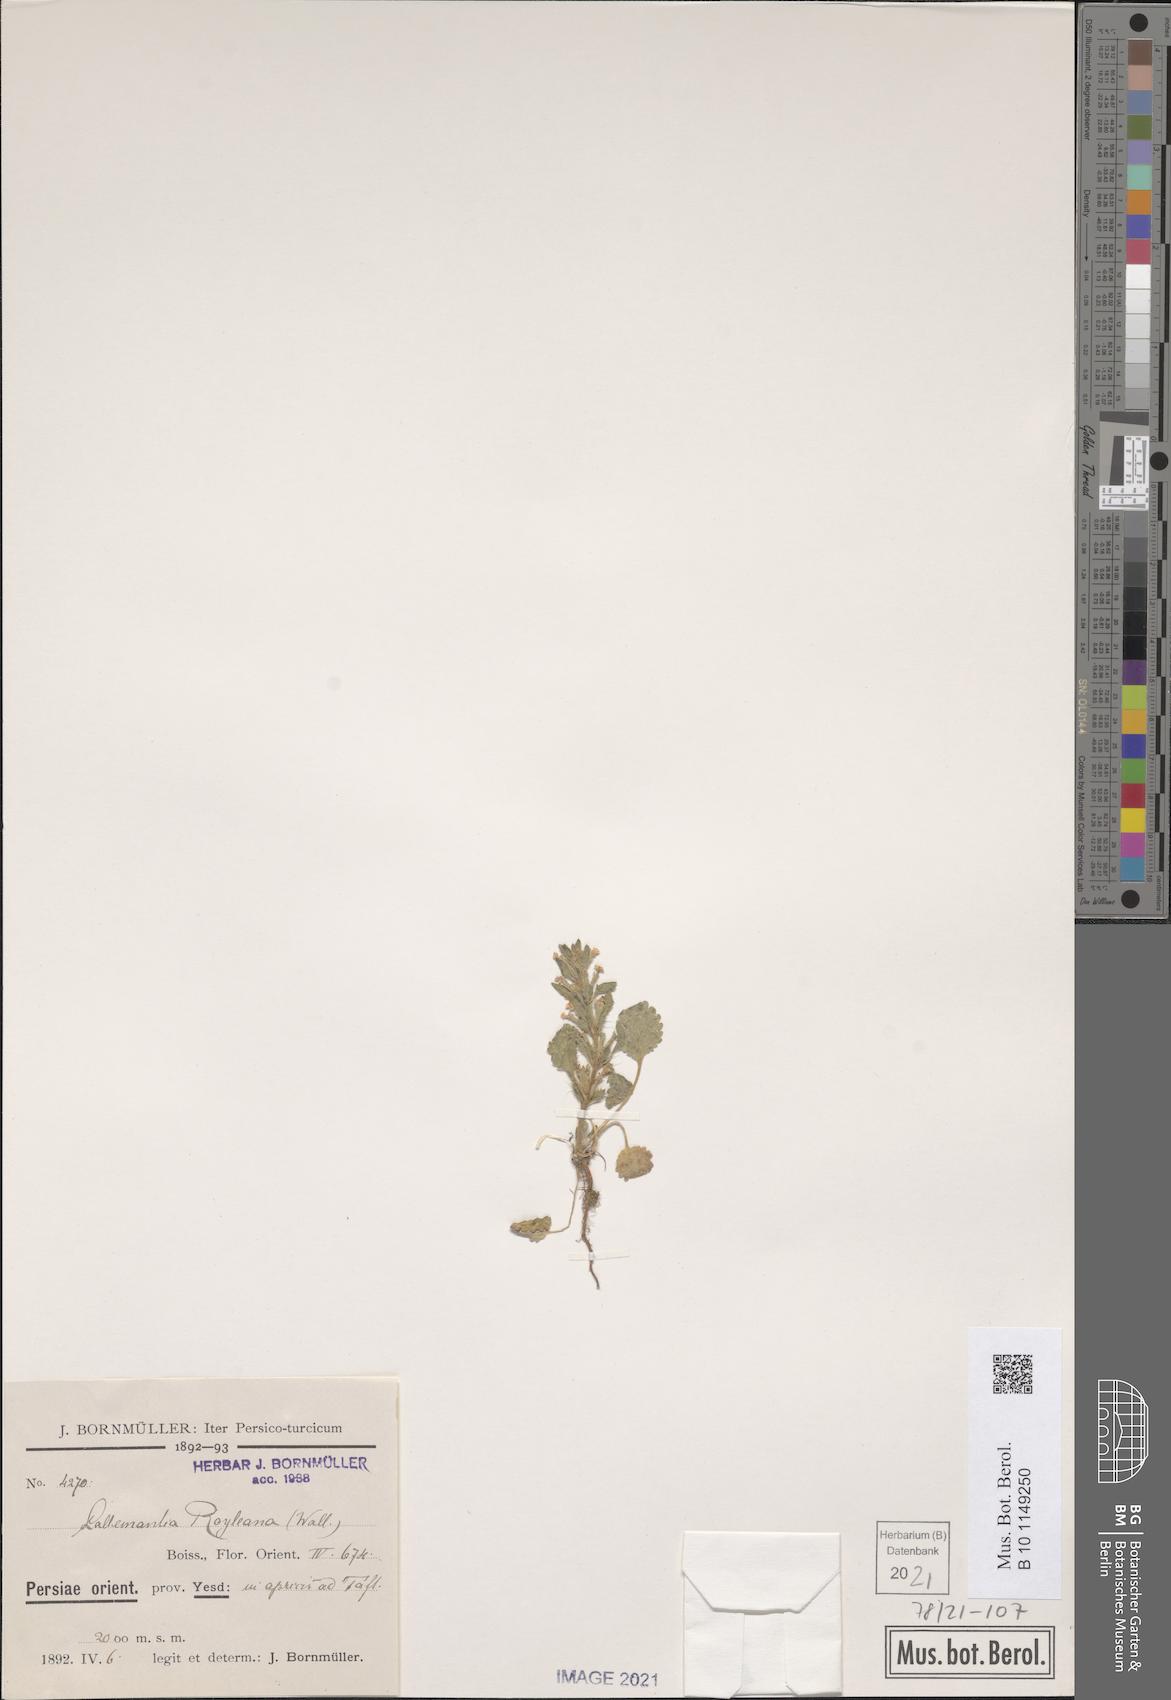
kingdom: Plantae
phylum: Tracheophyta
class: Magnoliopsida
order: Lamiales
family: Lamiaceae
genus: Lallemantia
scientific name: Lallemantia royleana
